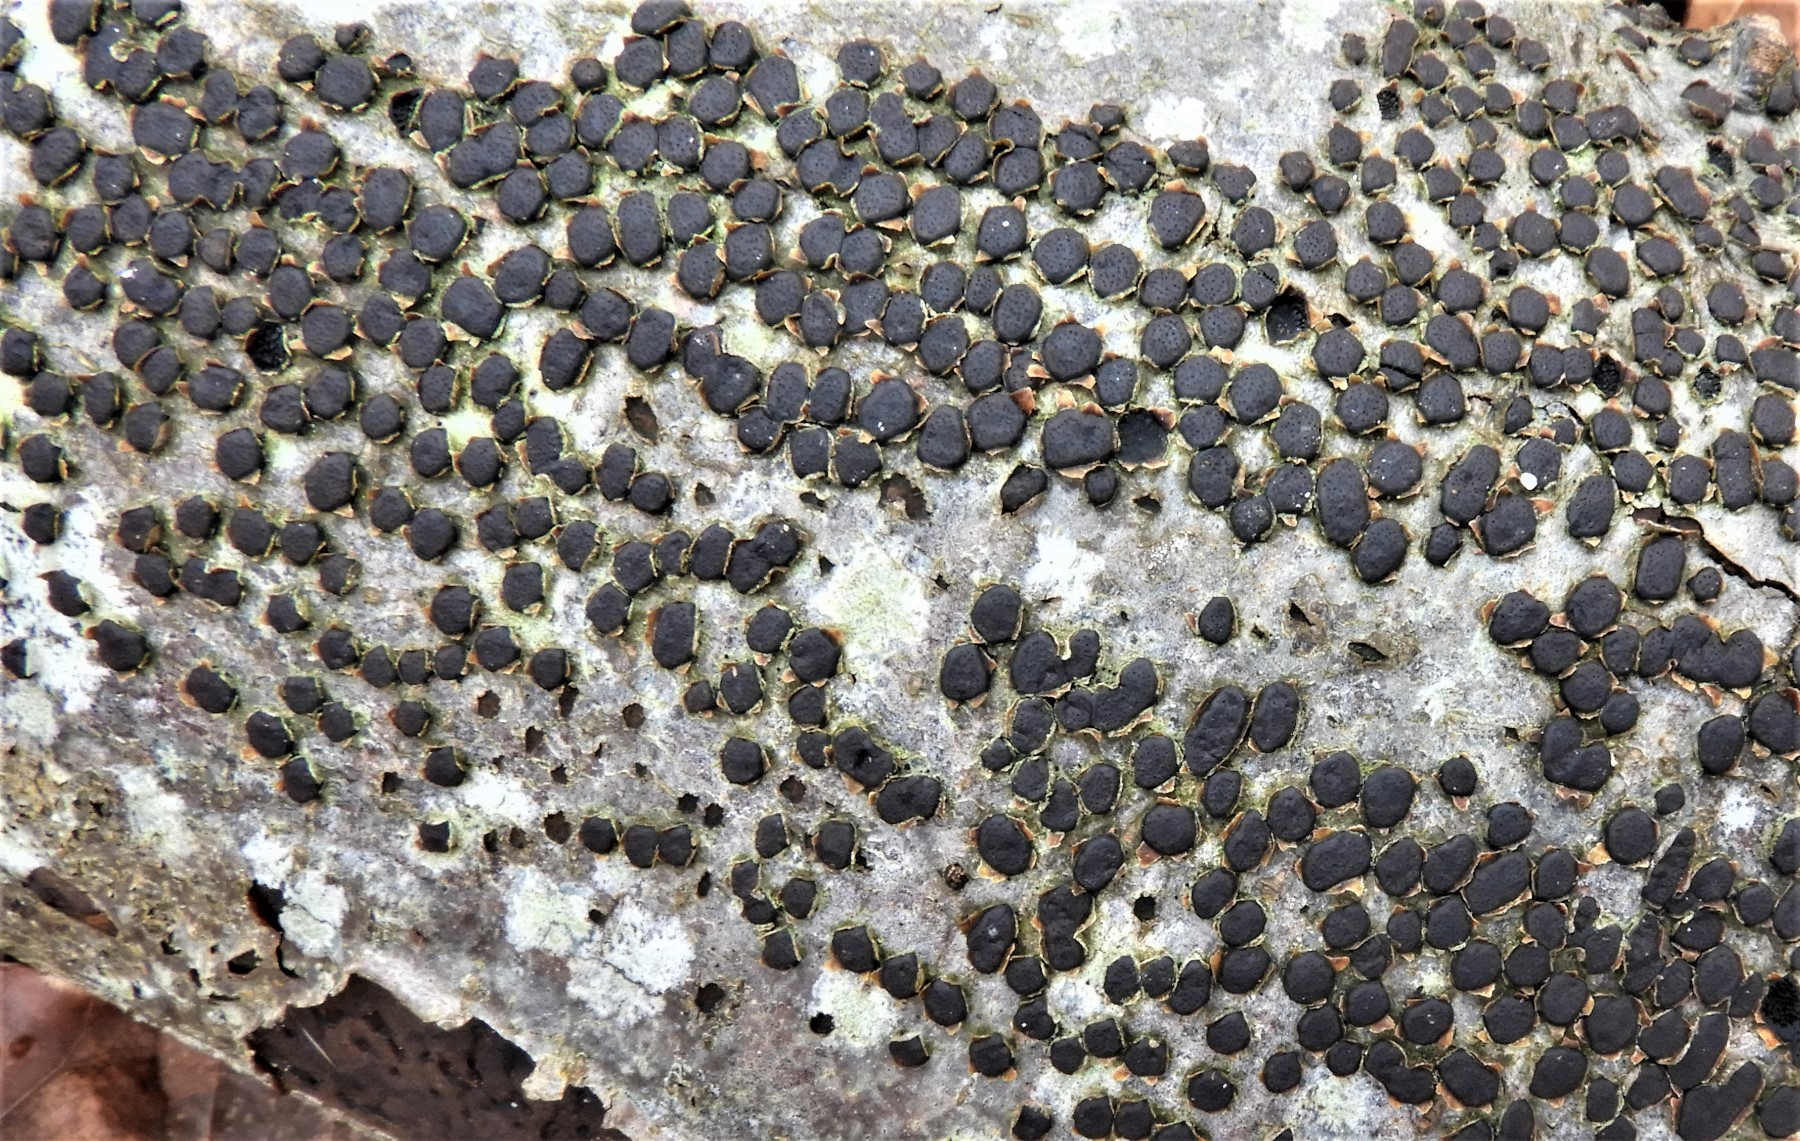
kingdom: Fungi
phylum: Ascomycota
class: Sordariomycetes
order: Xylariales
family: Diatrypaceae
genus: Diatrype
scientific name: Diatrype disciformis
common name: kant-kulskorpe
